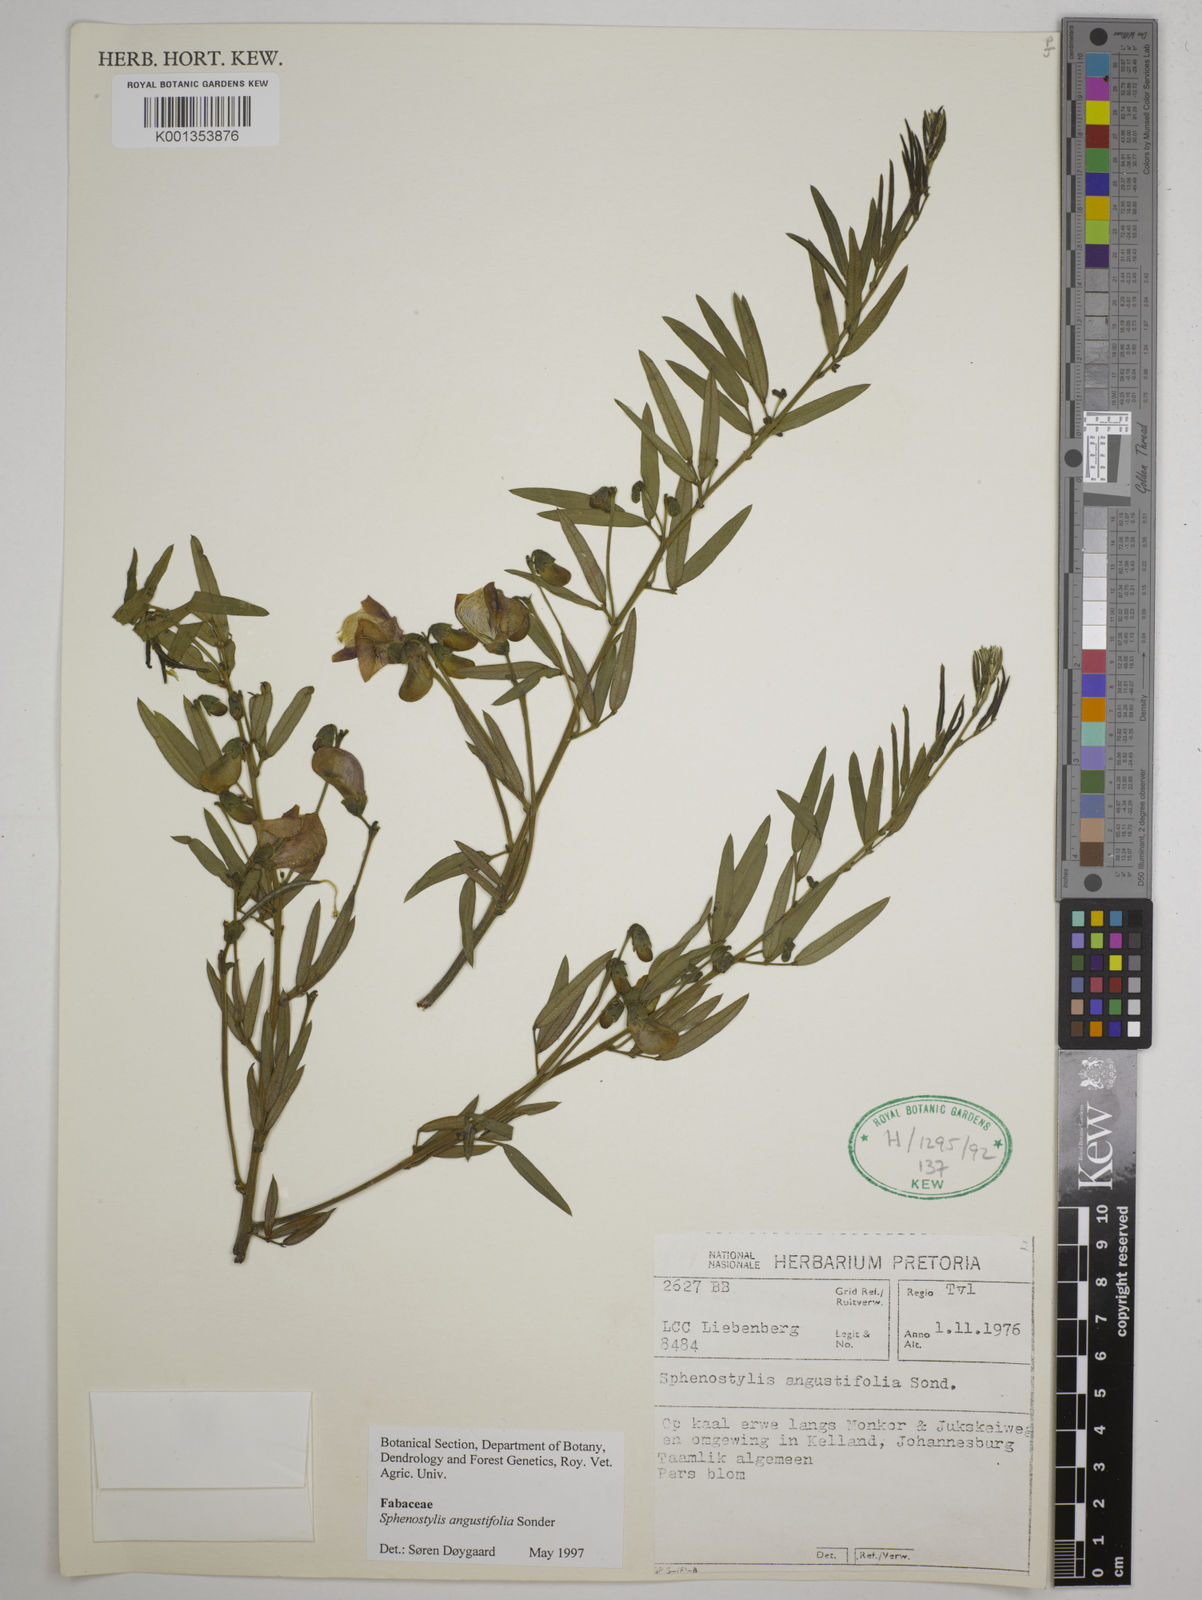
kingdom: Plantae
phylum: Tracheophyta
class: Magnoliopsida
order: Fabales
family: Fabaceae
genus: Sphenostylis
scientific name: Sphenostylis angustifolia
